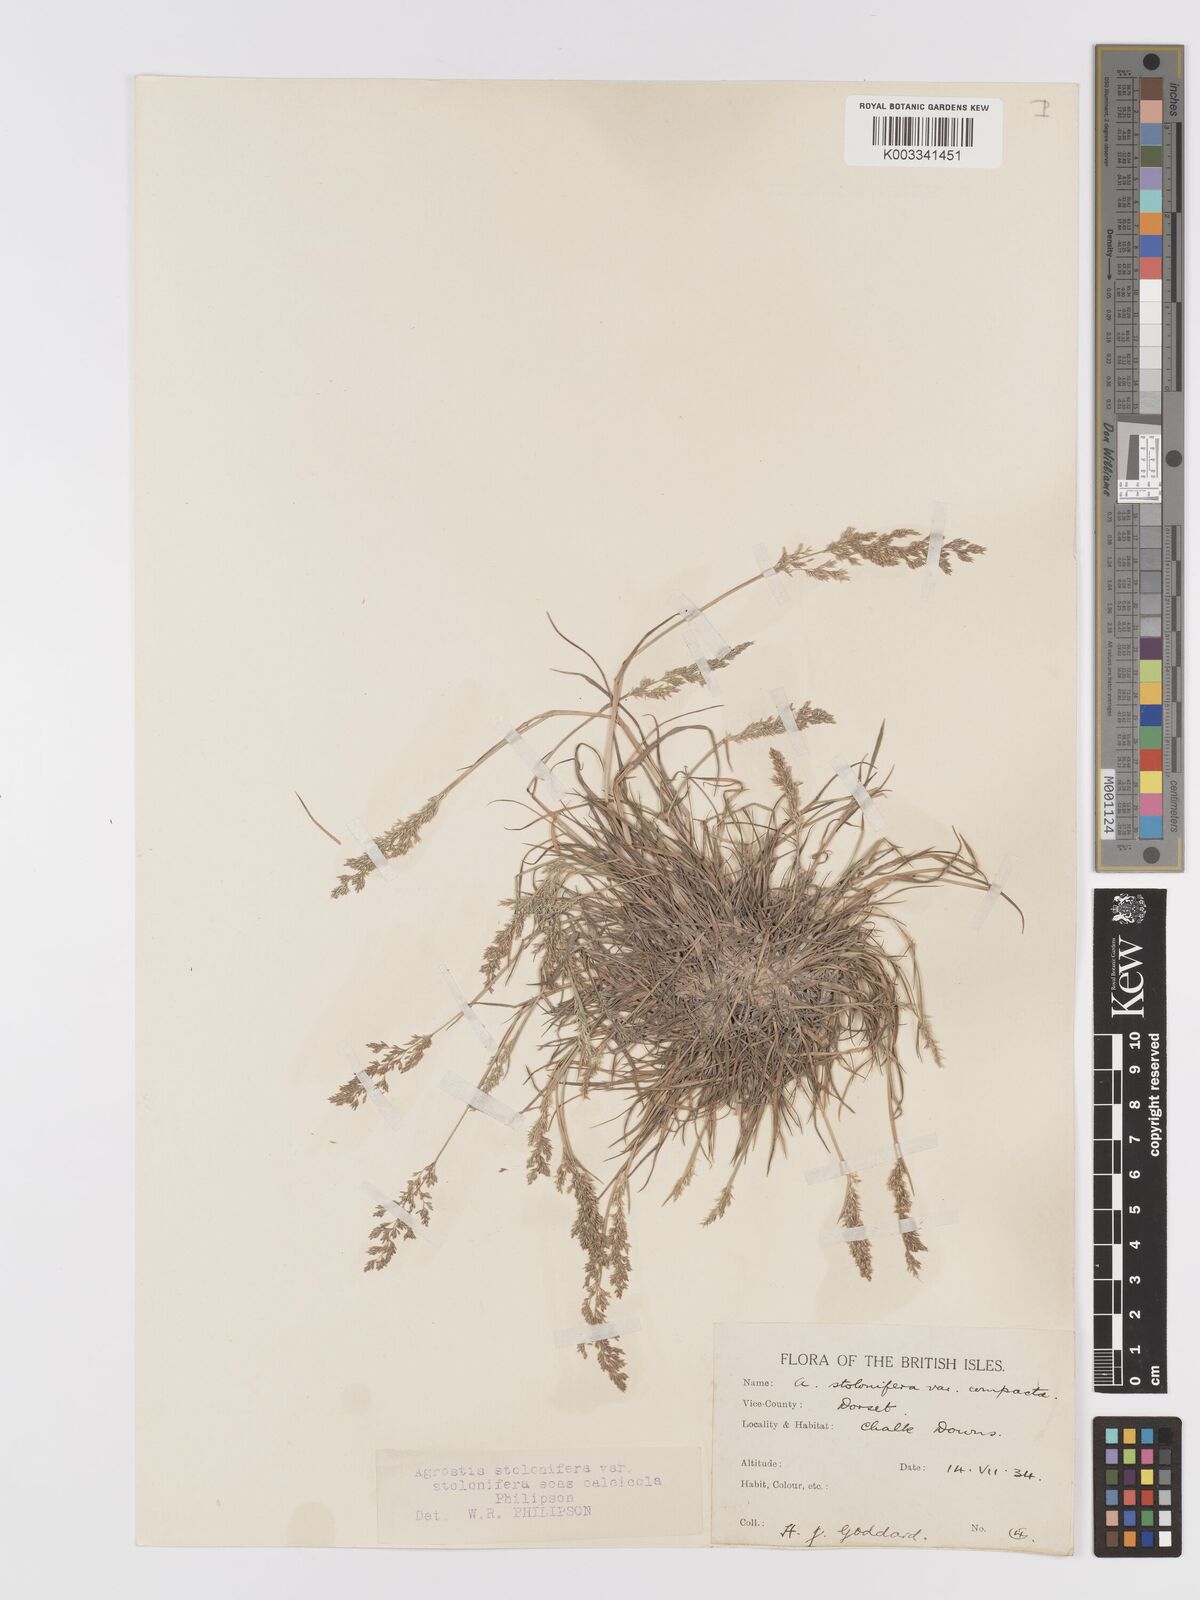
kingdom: Plantae
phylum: Tracheophyta
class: Liliopsida
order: Poales
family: Poaceae
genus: Agrostis
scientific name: Agrostis stolonifera
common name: Creeping bentgrass
